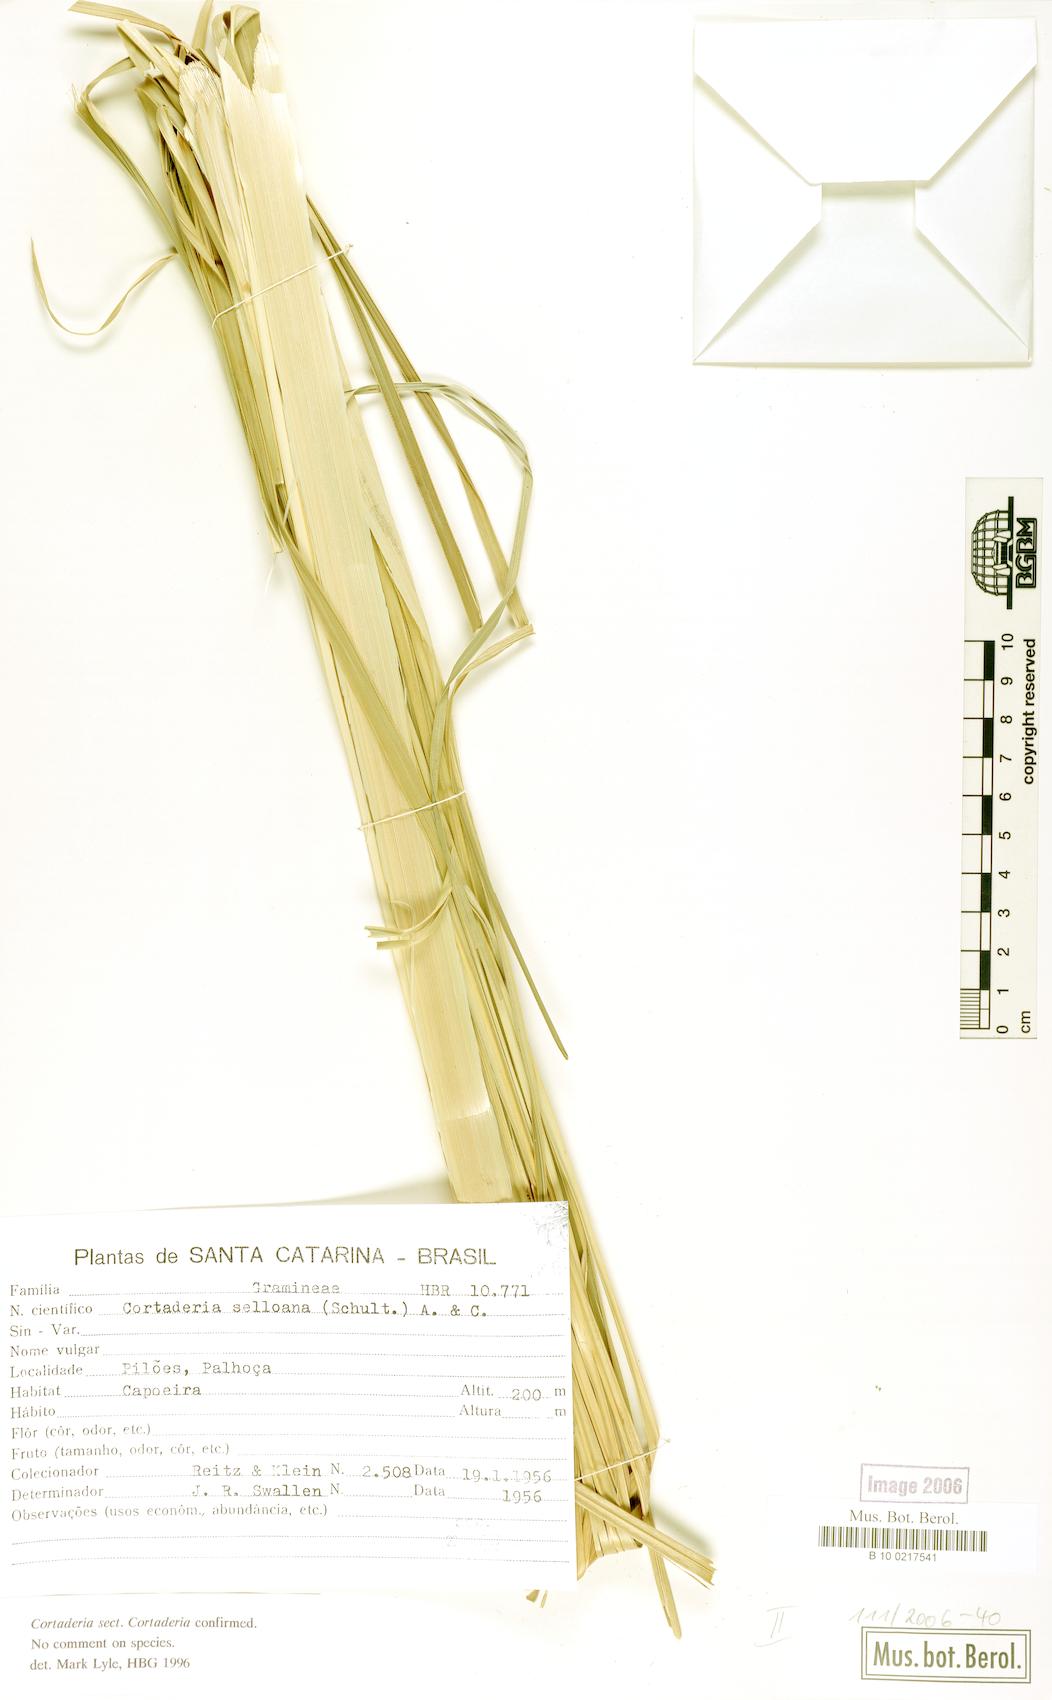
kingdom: Plantae
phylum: Tracheophyta
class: Liliopsida
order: Poales
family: Poaceae
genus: Cortaderia
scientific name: Cortaderia selloana
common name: Uruguayan pampas grass
